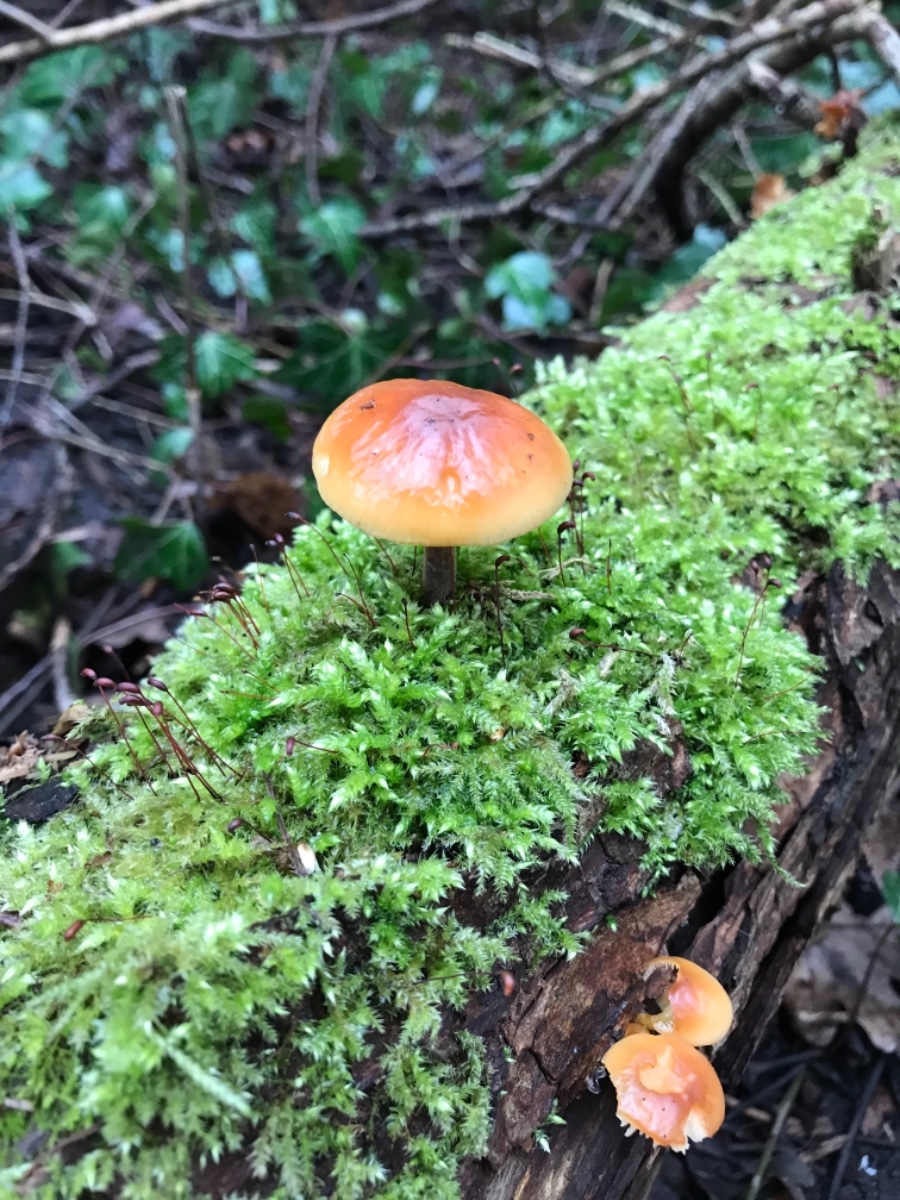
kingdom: Fungi
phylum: Basidiomycota
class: Agaricomycetes
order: Agaricales
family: Physalacriaceae
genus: Flammulina
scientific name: Flammulina
